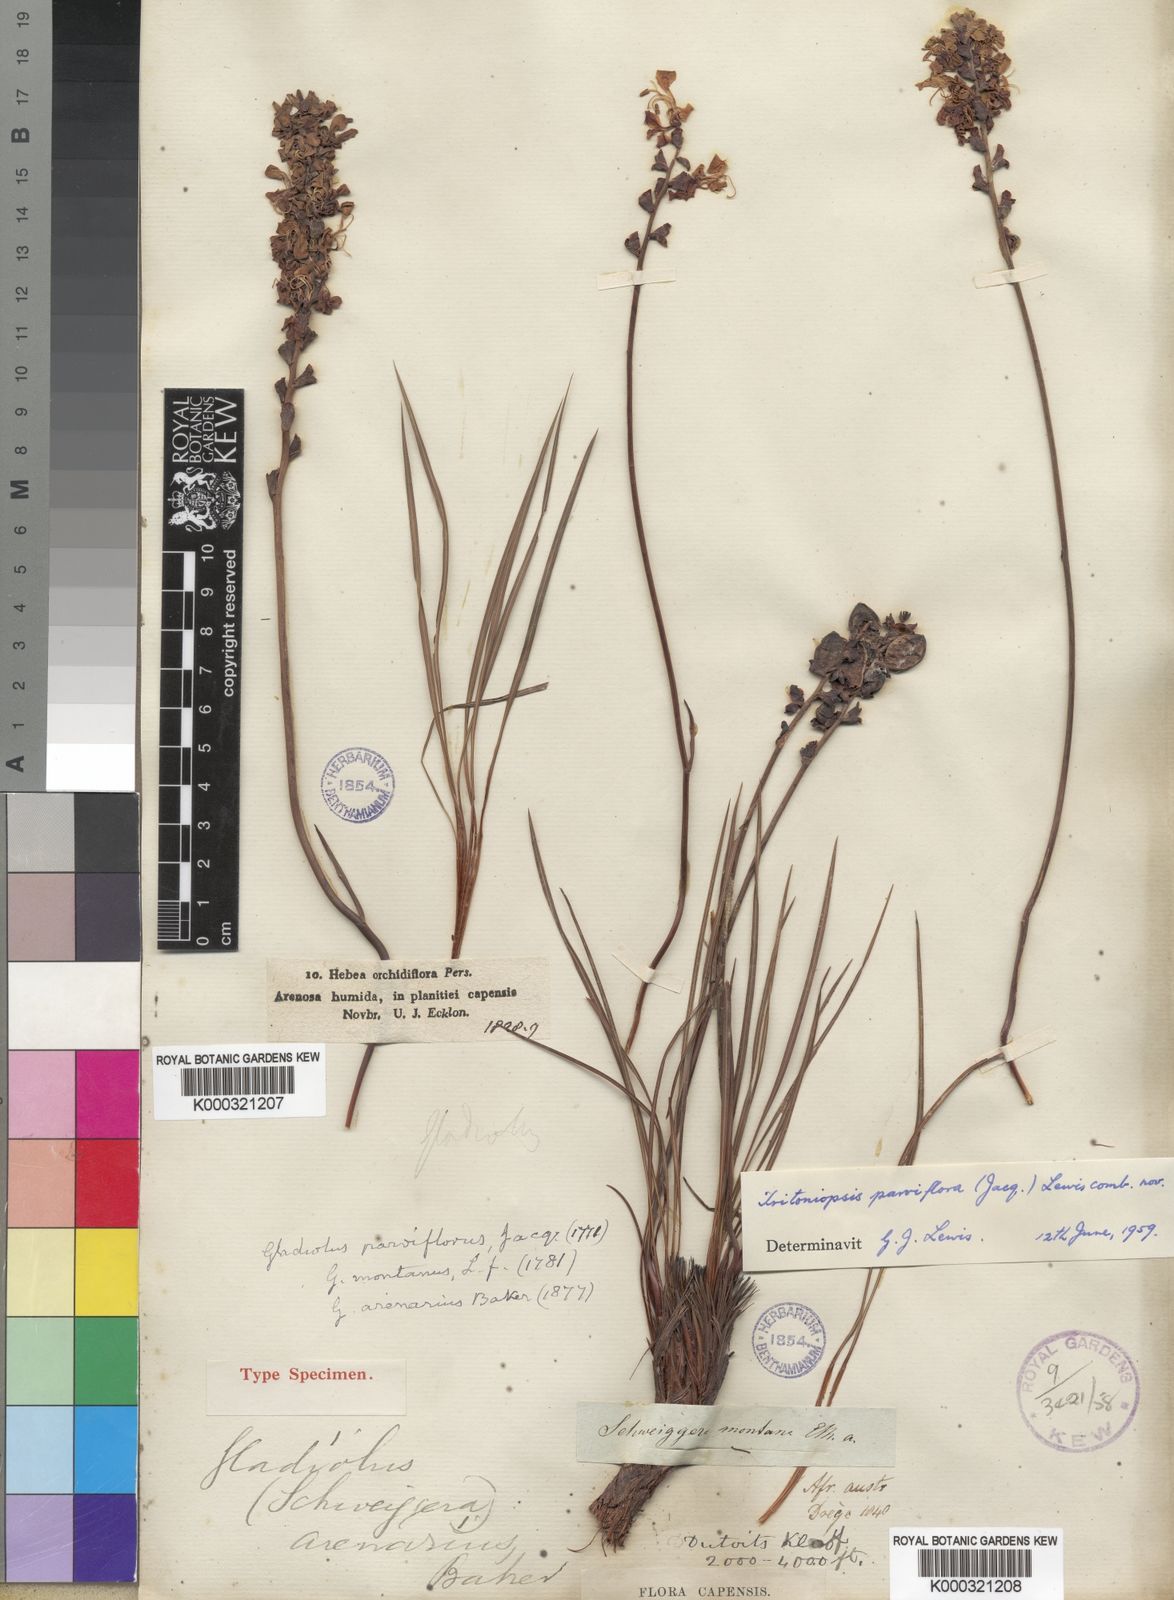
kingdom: Plantae
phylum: Tracheophyta
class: Liliopsida
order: Asparagales
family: Iridaceae
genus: Tritoniopsis
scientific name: Tritoniopsis parviflora
